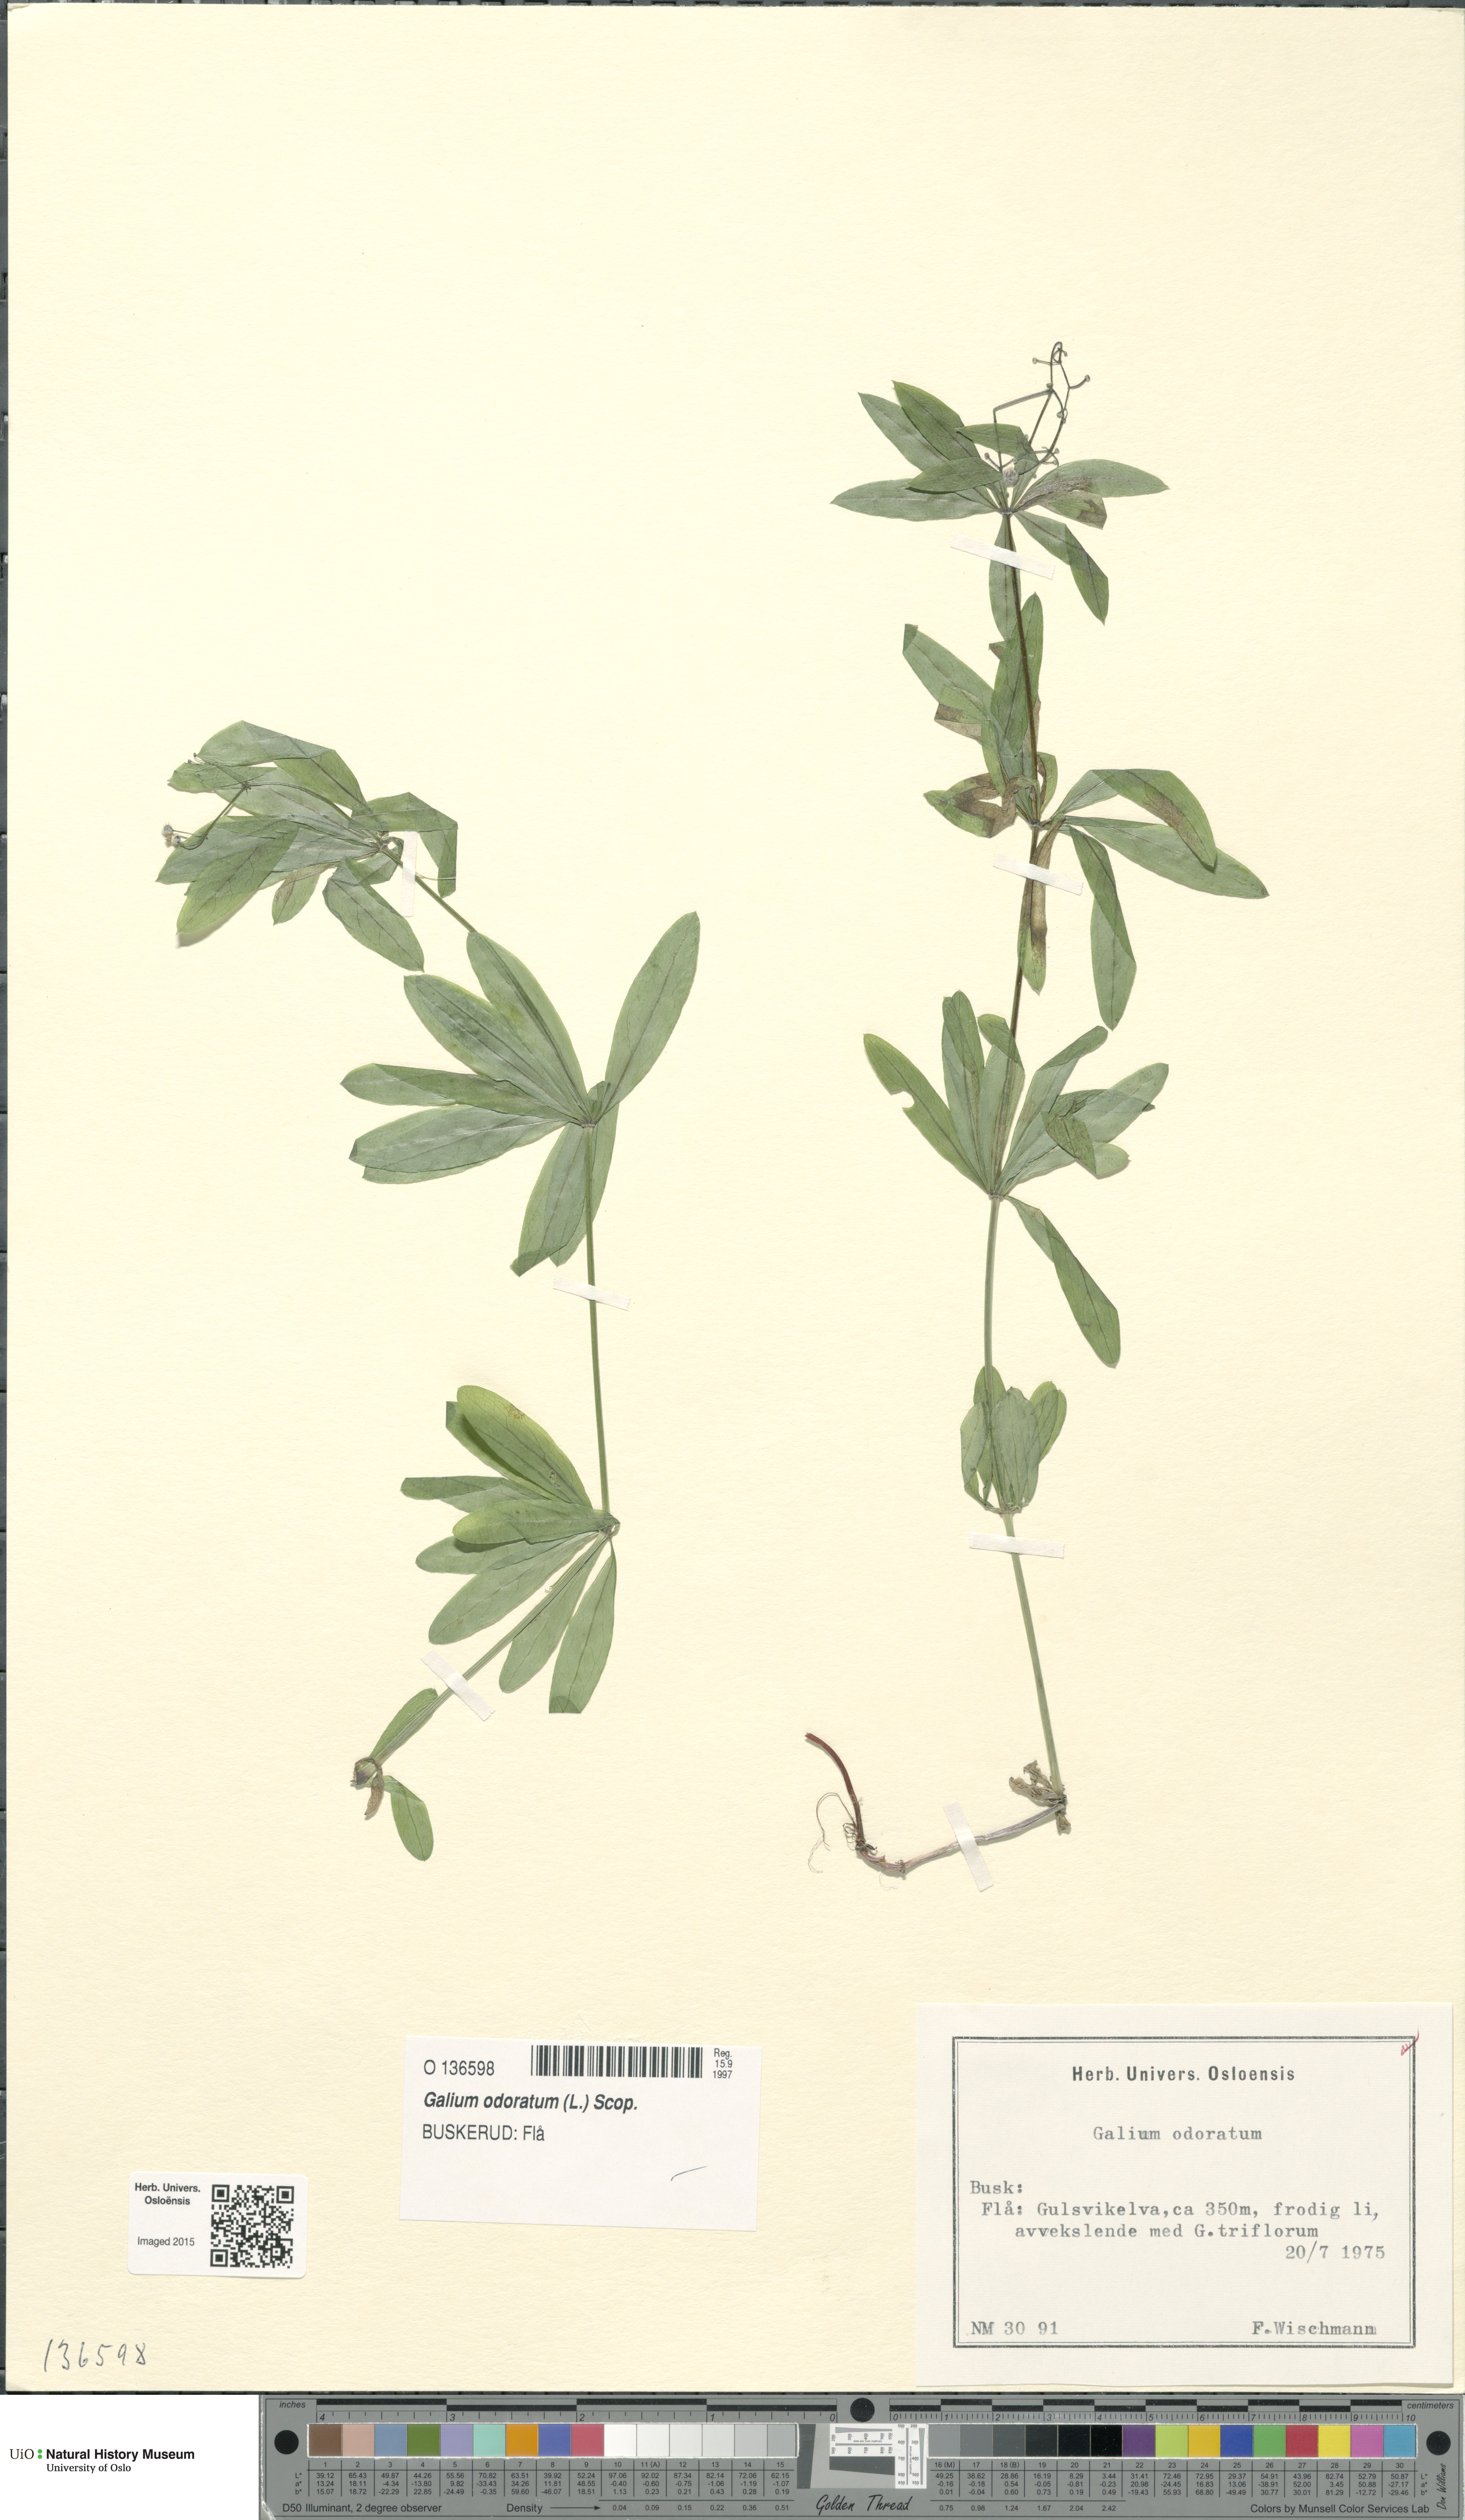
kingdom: Plantae
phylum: Tracheophyta
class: Magnoliopsida
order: Gentianales
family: Rubiaceae
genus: Galium
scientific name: Galium odoratum
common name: Sweet woodruff
